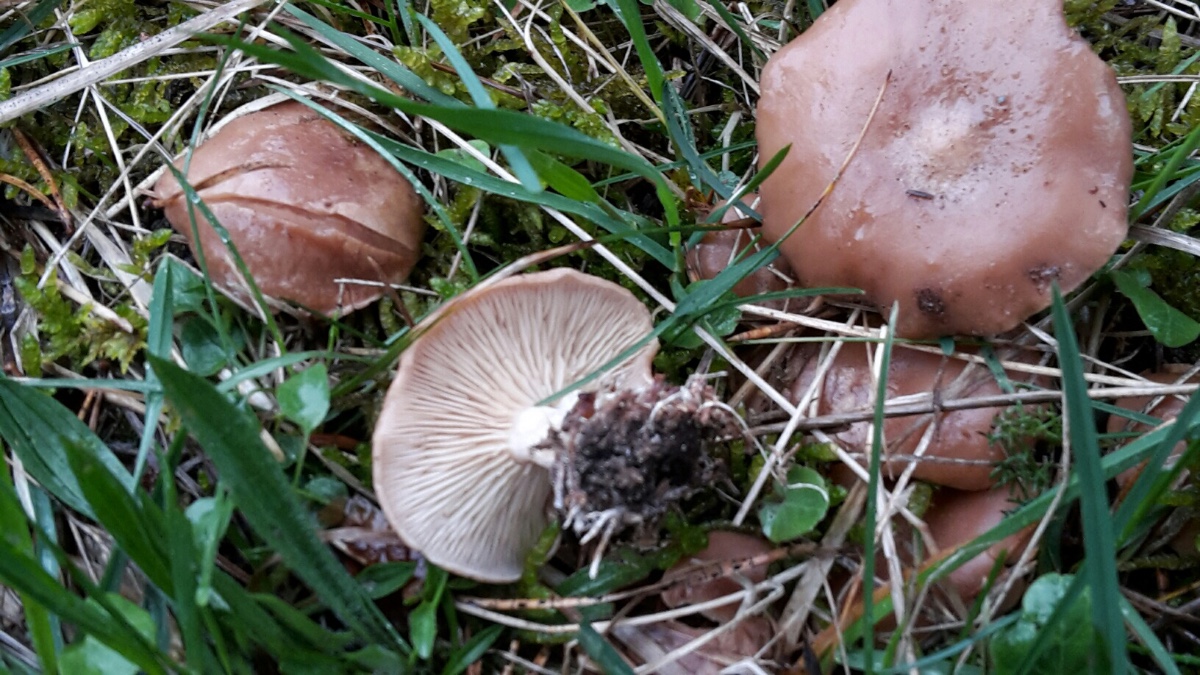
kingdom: Fungi
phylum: Basidiomycota
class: Agaricomycetes
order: Agaricales
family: Tricholomataceae
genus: Rhizocybe
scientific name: Rhizocybe vermicularis
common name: hyfestrengs-tragthat
